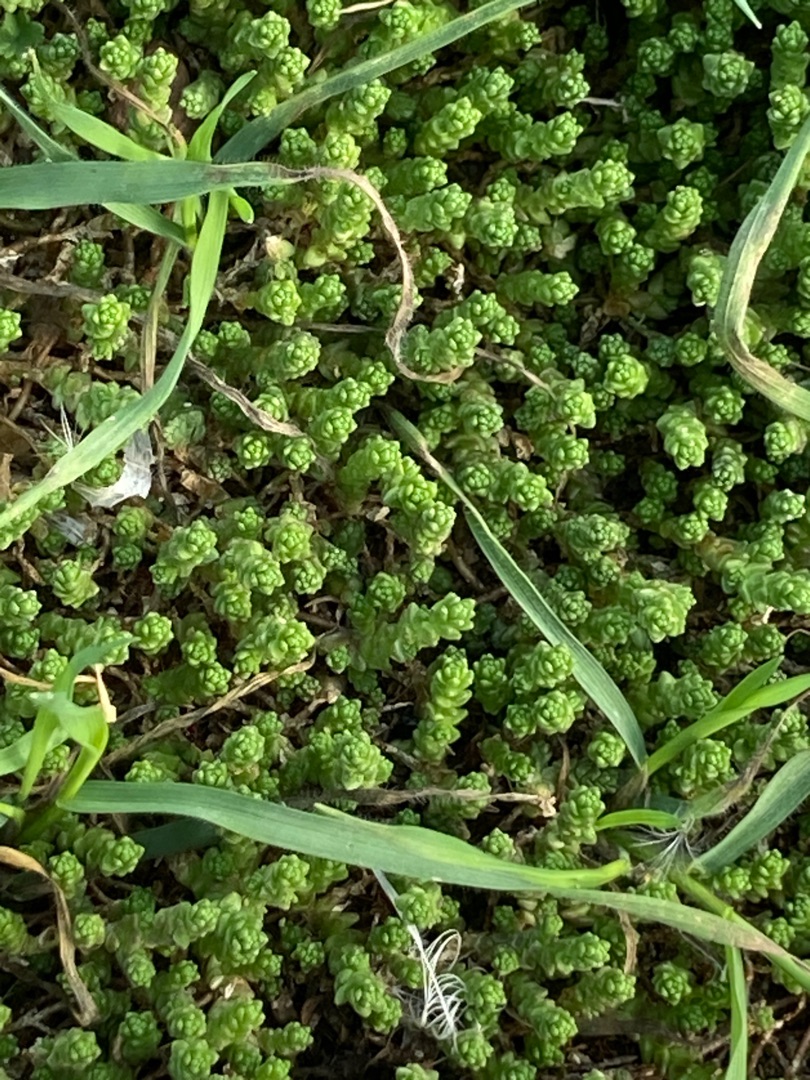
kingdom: Plantae
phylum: Tracheophyta
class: Magnoliopsida
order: Saxifragales
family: Crassulaceae
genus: Sedum
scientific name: Sedum acre
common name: Bidende stenurt
